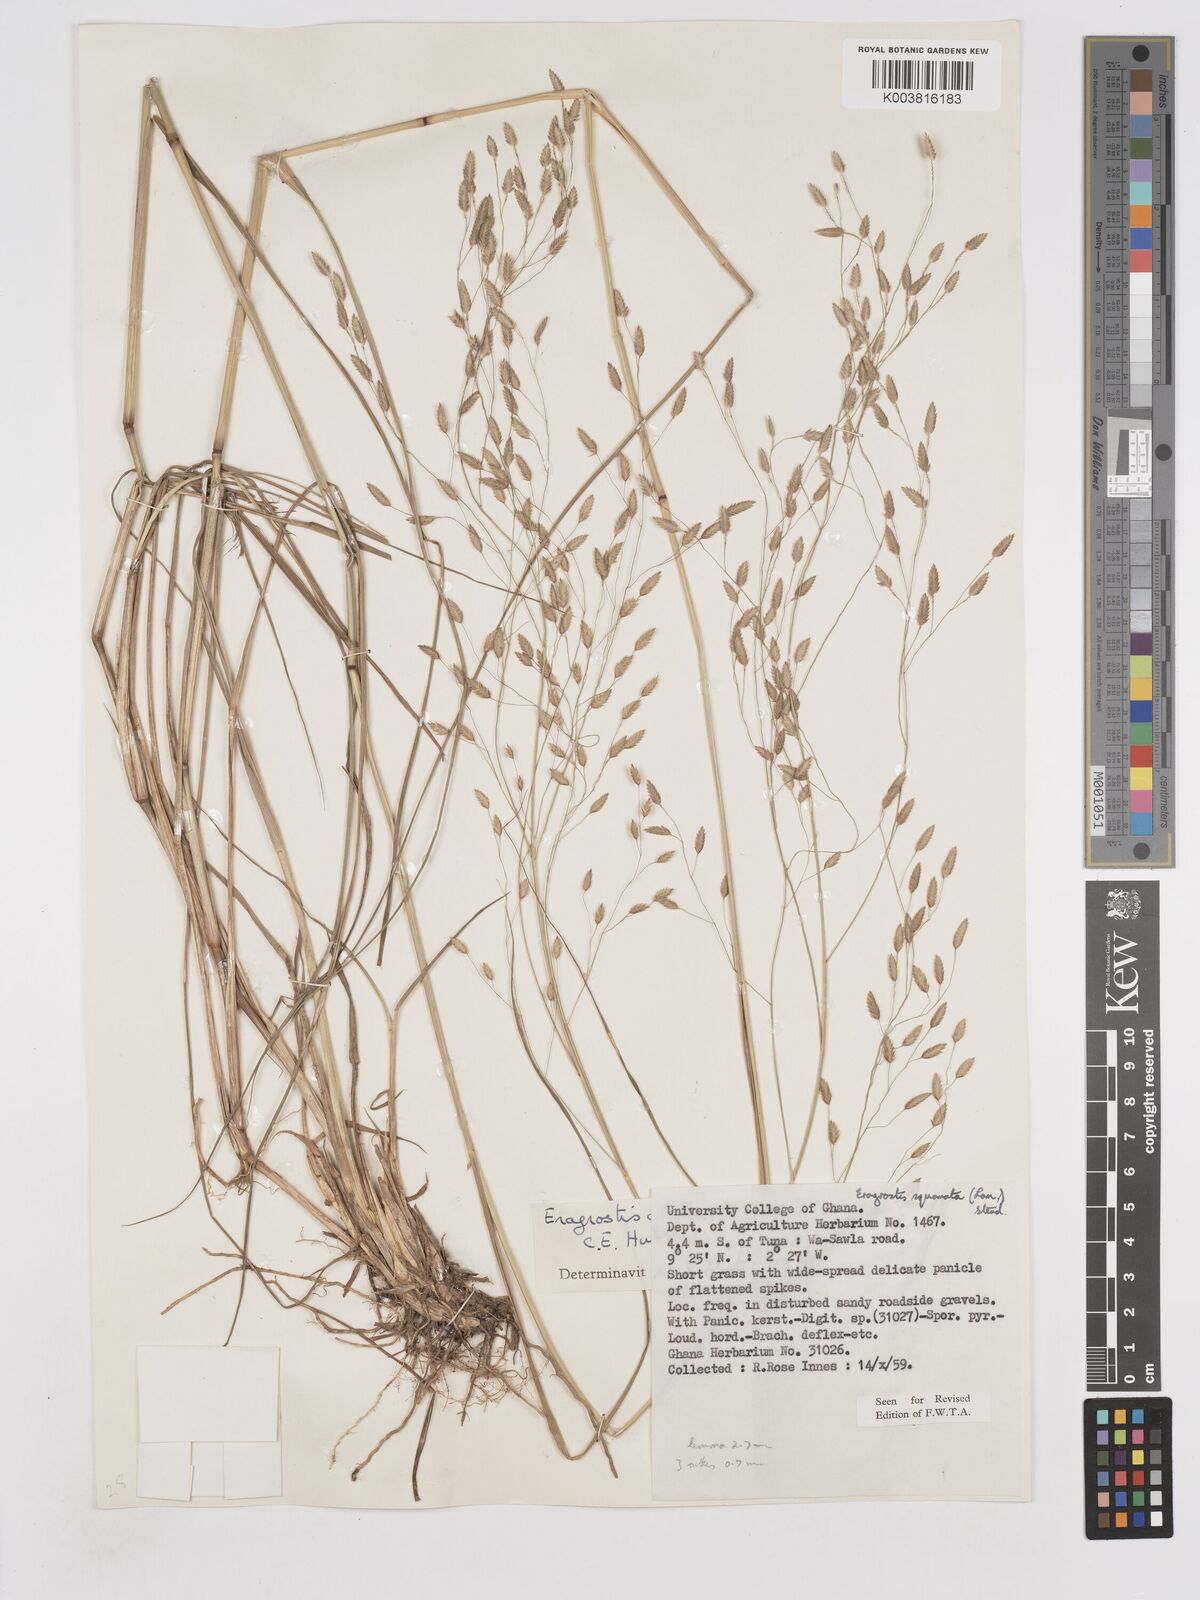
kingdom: Plantae
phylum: Tracheophyta
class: Liliopsida
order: Poales
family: Poaceae
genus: Eragrostis
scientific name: Eragrostis chalarothyrsos
